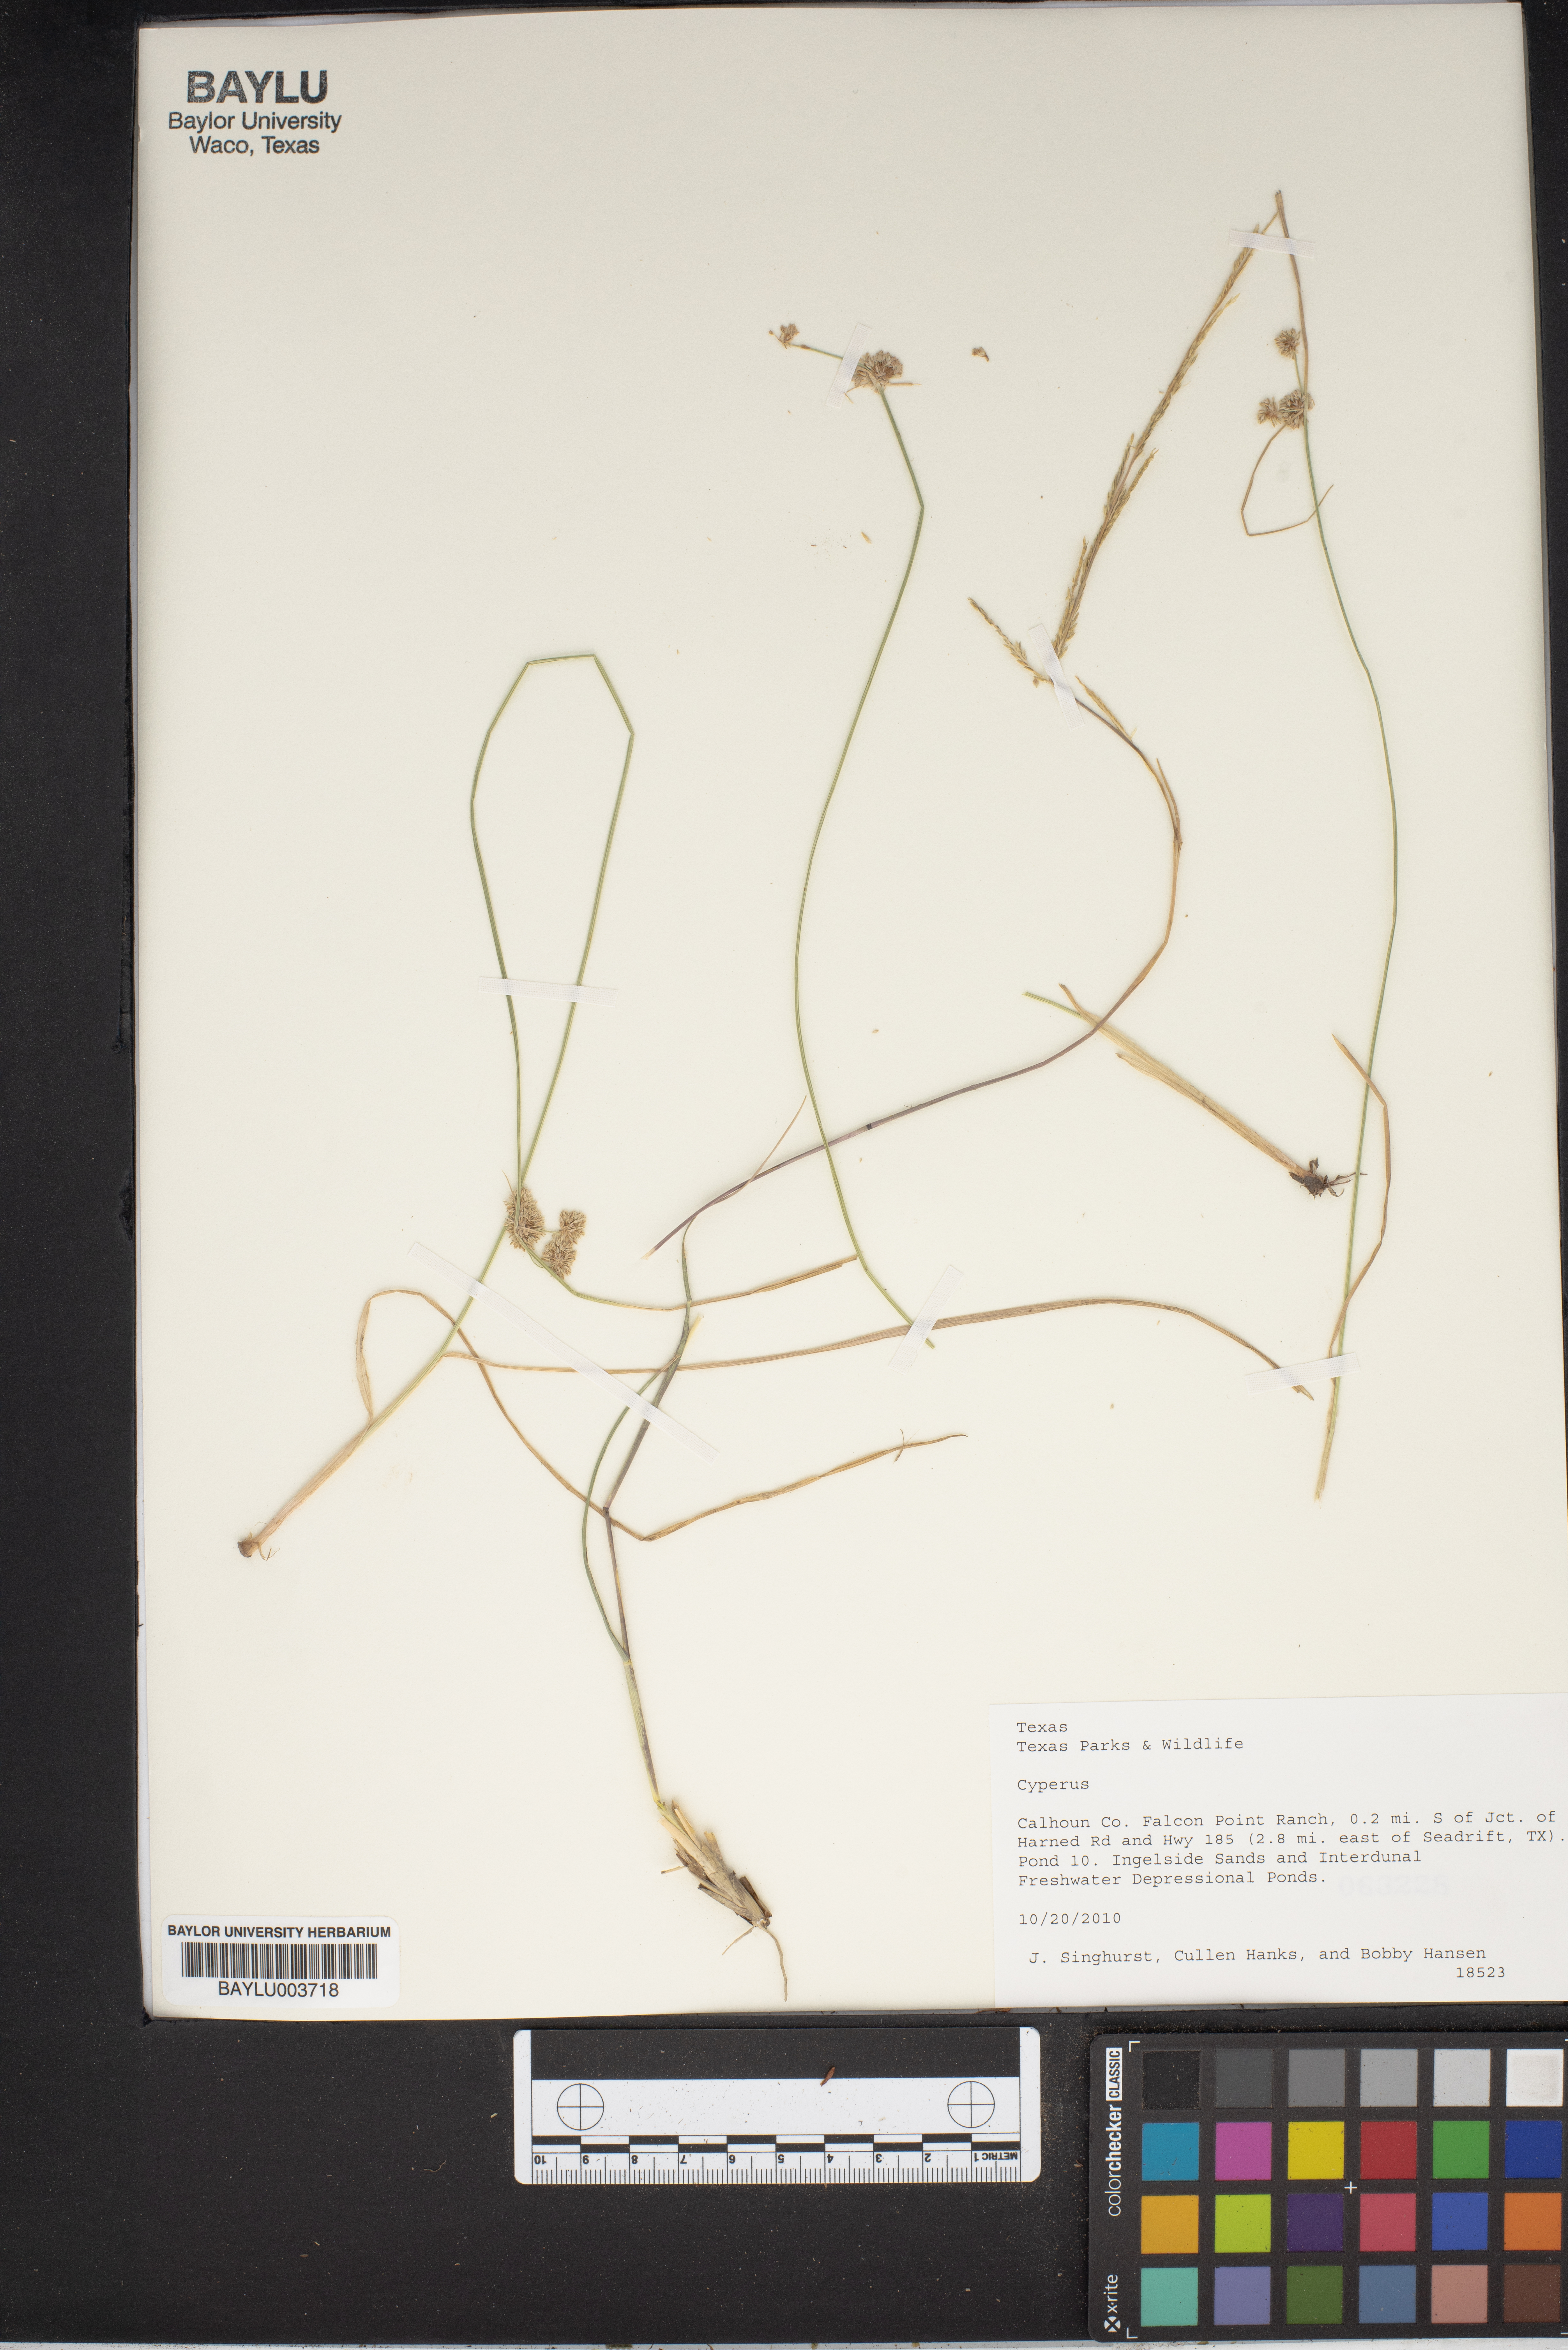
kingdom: Plantae
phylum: Tracheophyta
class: Liliopsida
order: Poales
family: Cyperaceae
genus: Cyperus
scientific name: Cyperus
